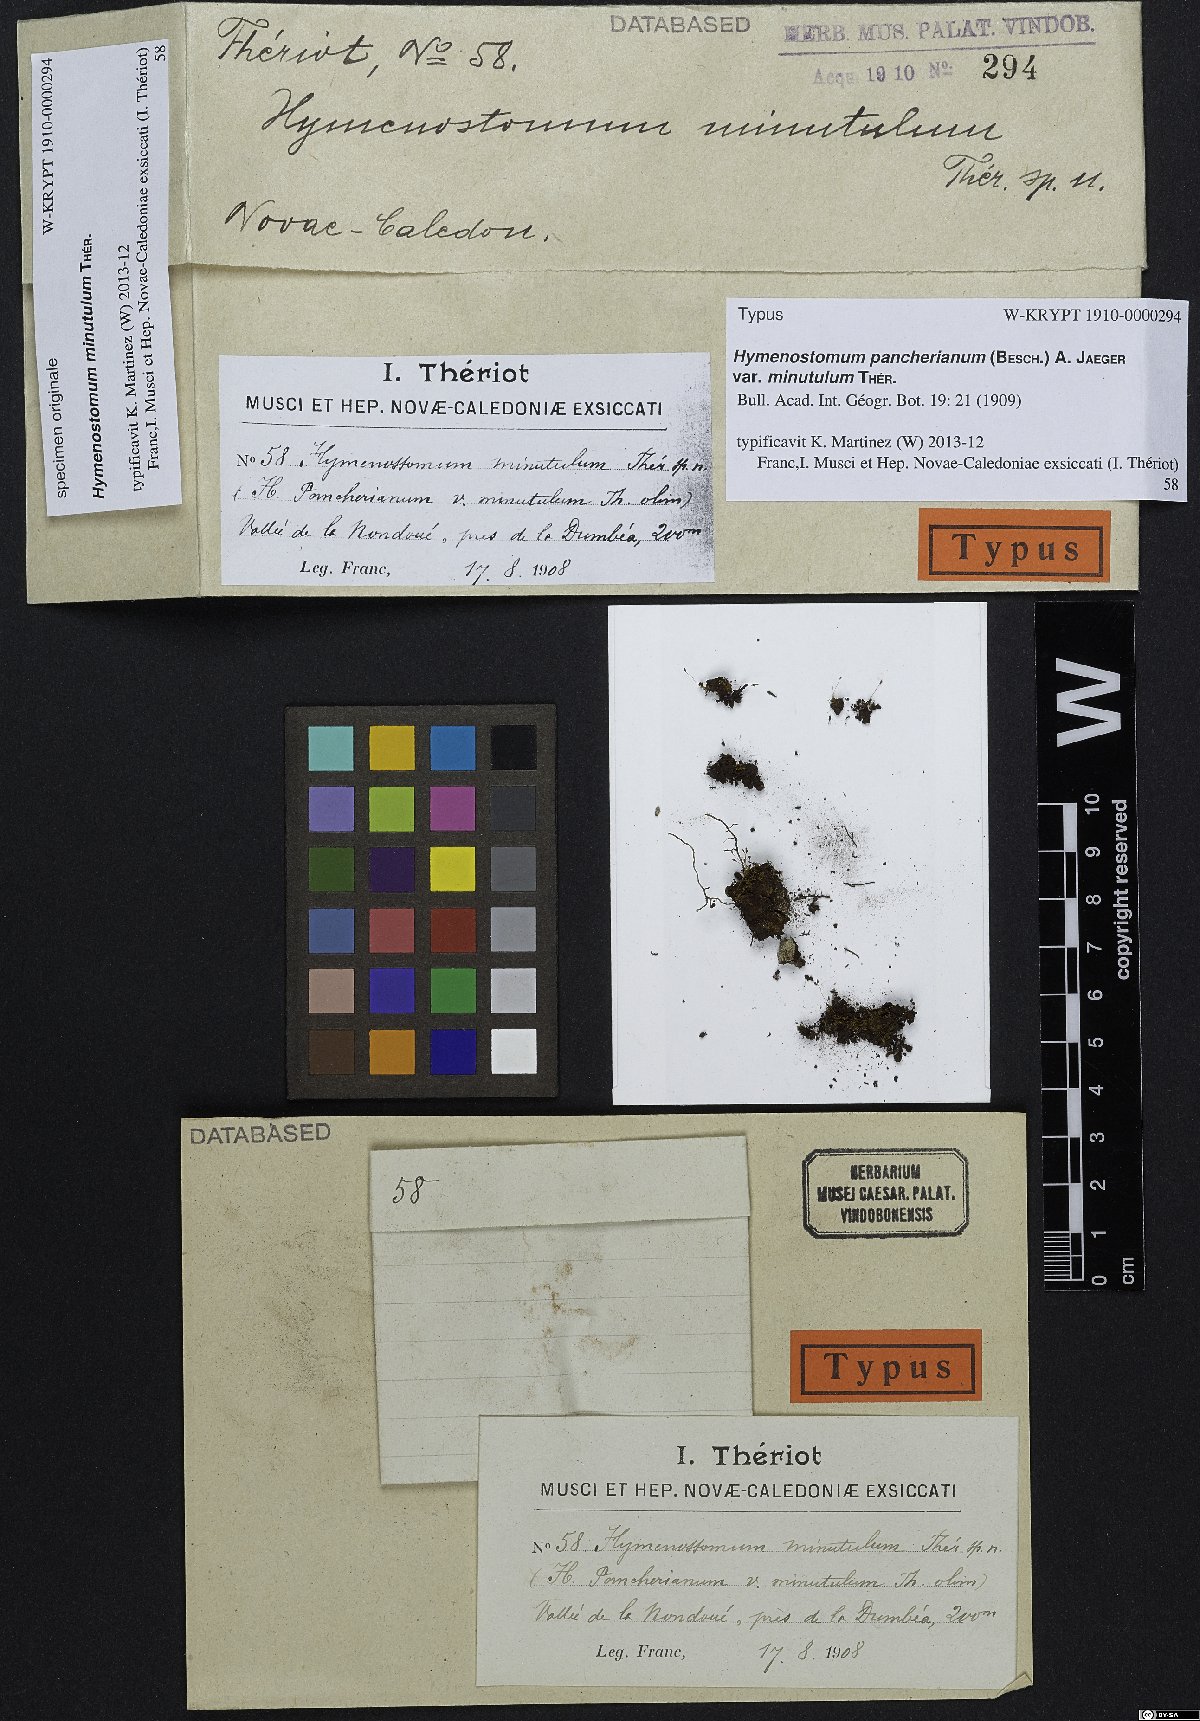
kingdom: Plantae
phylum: Bryophyta
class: Bryopsida
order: Pottiales
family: Pottiaceae
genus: Weissia
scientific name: Weissia edentula
